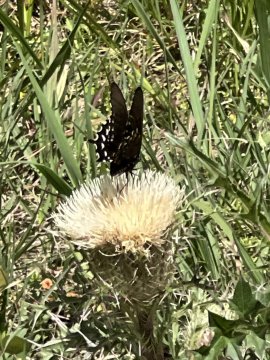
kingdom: Animalia
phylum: Arthropoda
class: Insecta
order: Lepidoptera
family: Papilionidae
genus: Battus
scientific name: Battus philenor
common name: Pipevine Swallowtail
